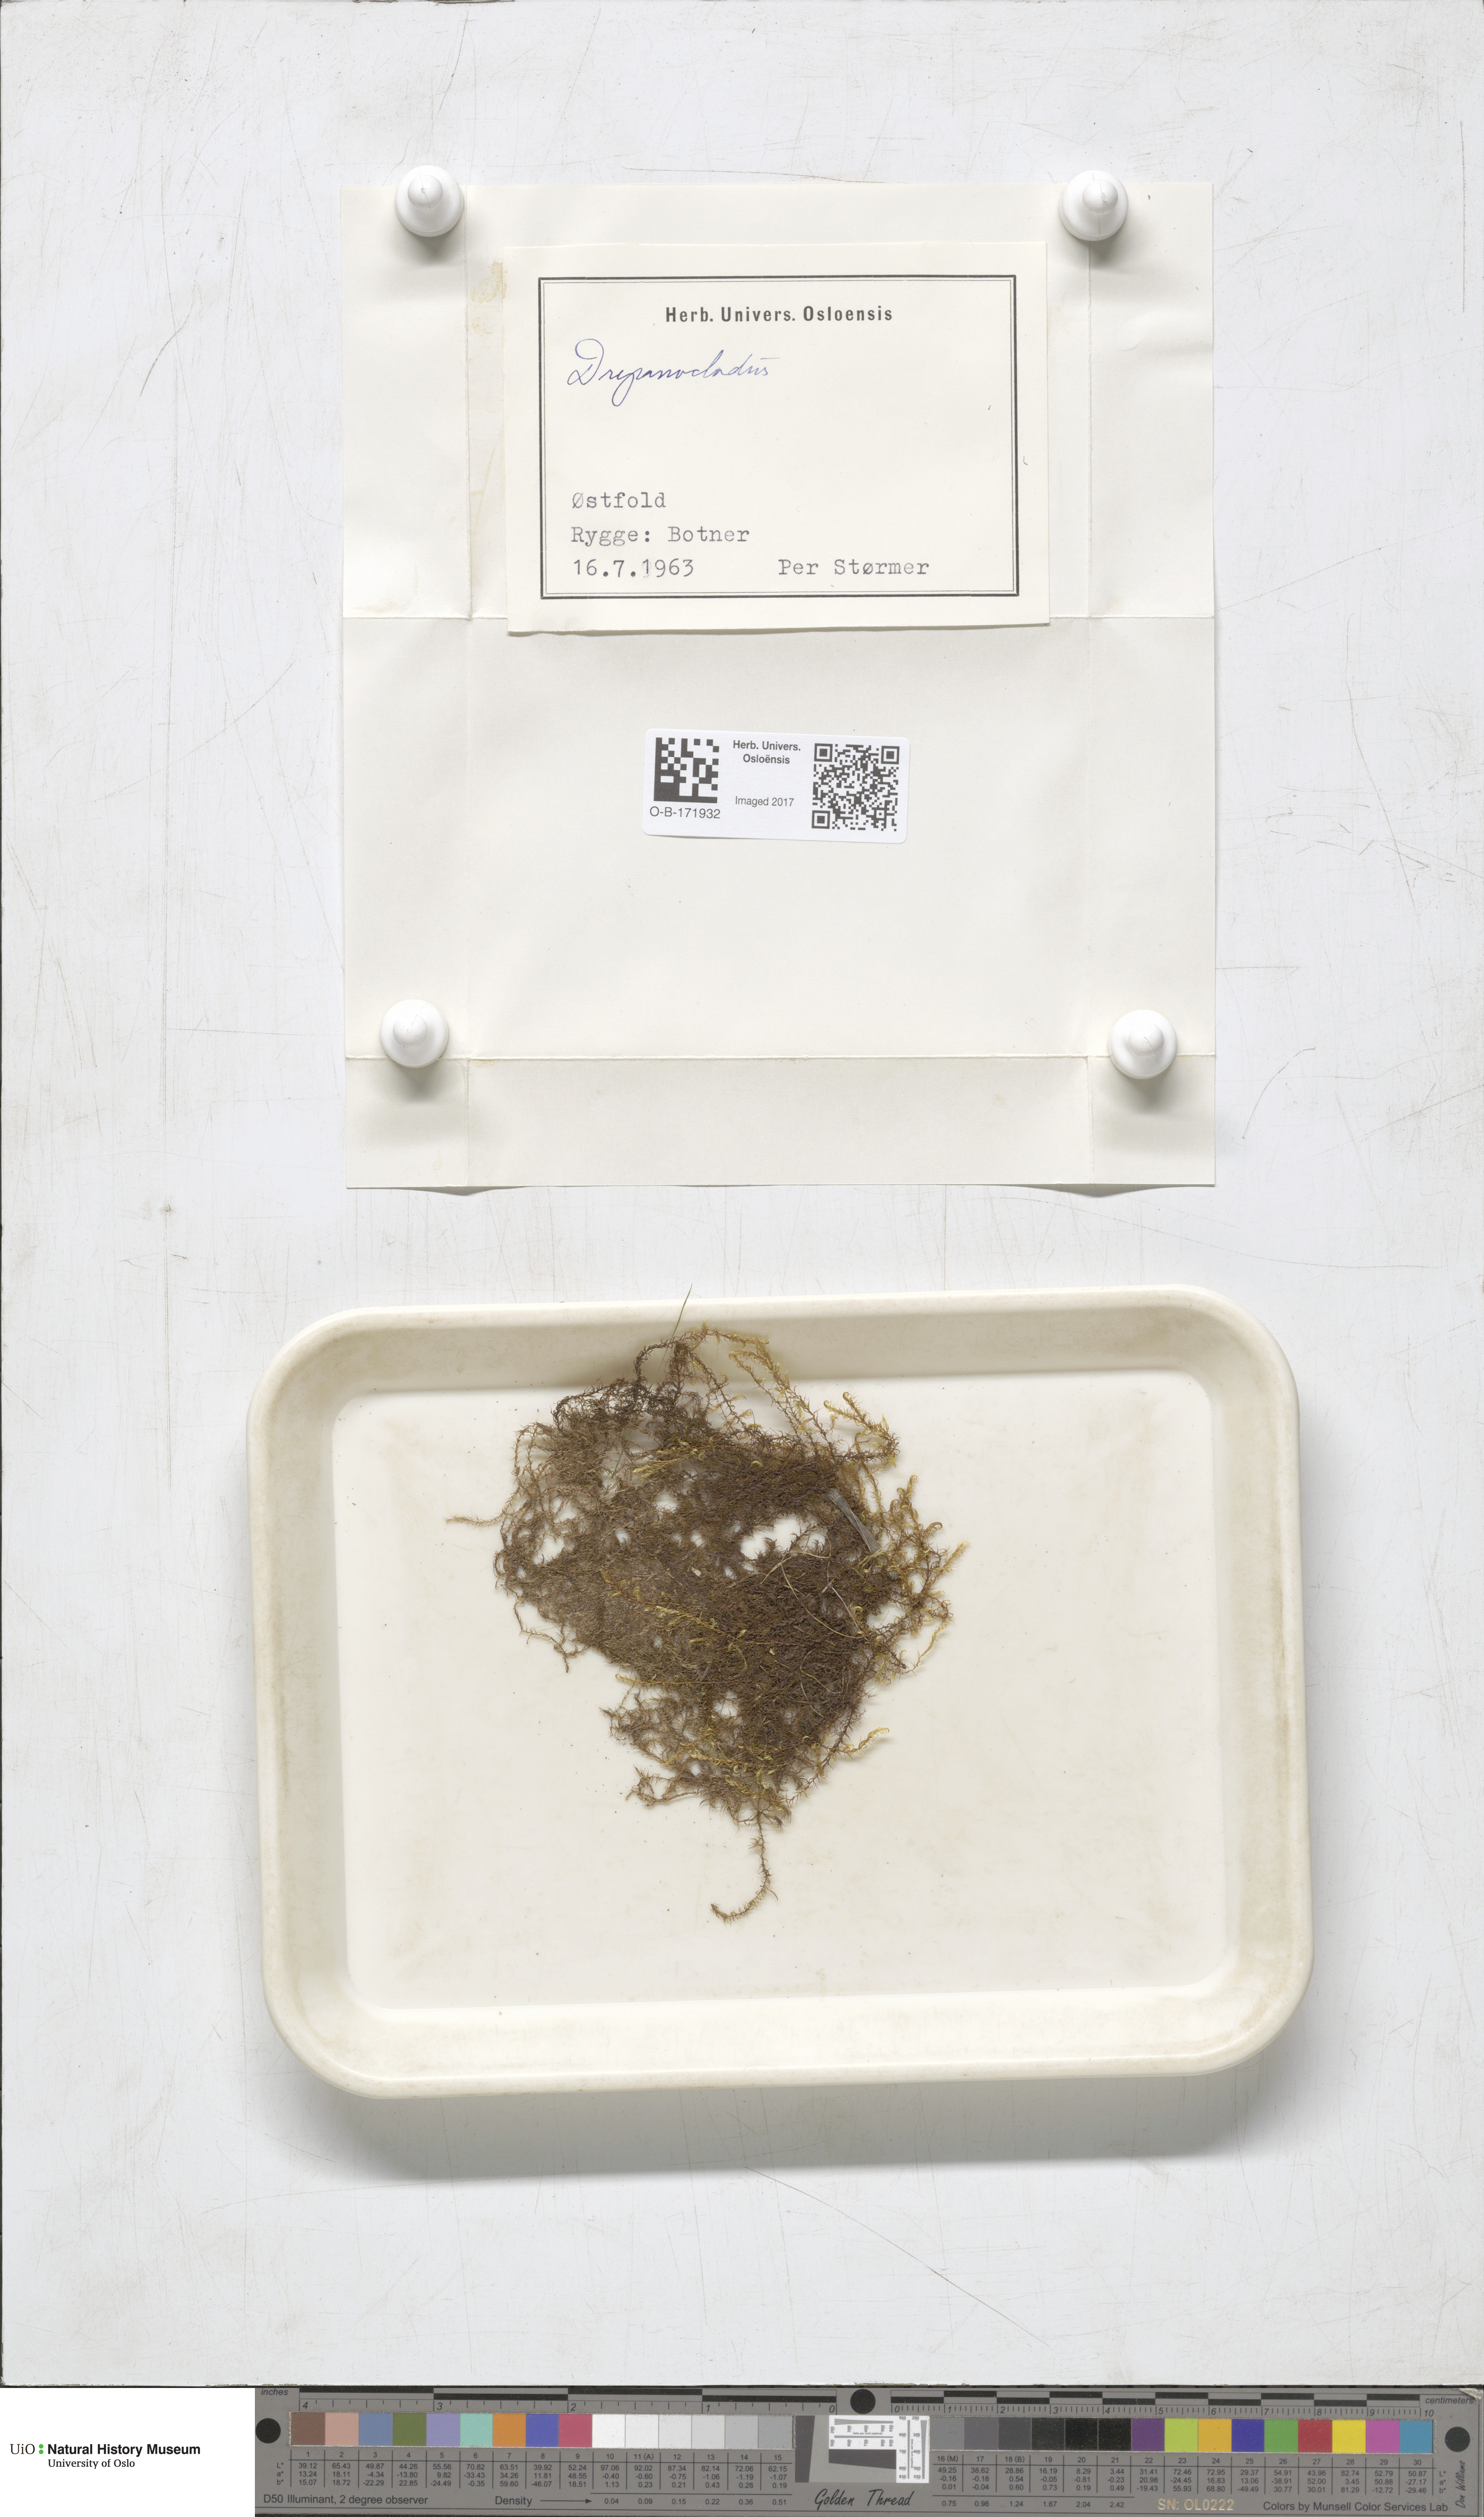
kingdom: Plantae
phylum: Bryophyta
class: Bryopsida
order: Hypnales
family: Amblystegiaceae
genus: Drepanocladus
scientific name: Drepanocladus
